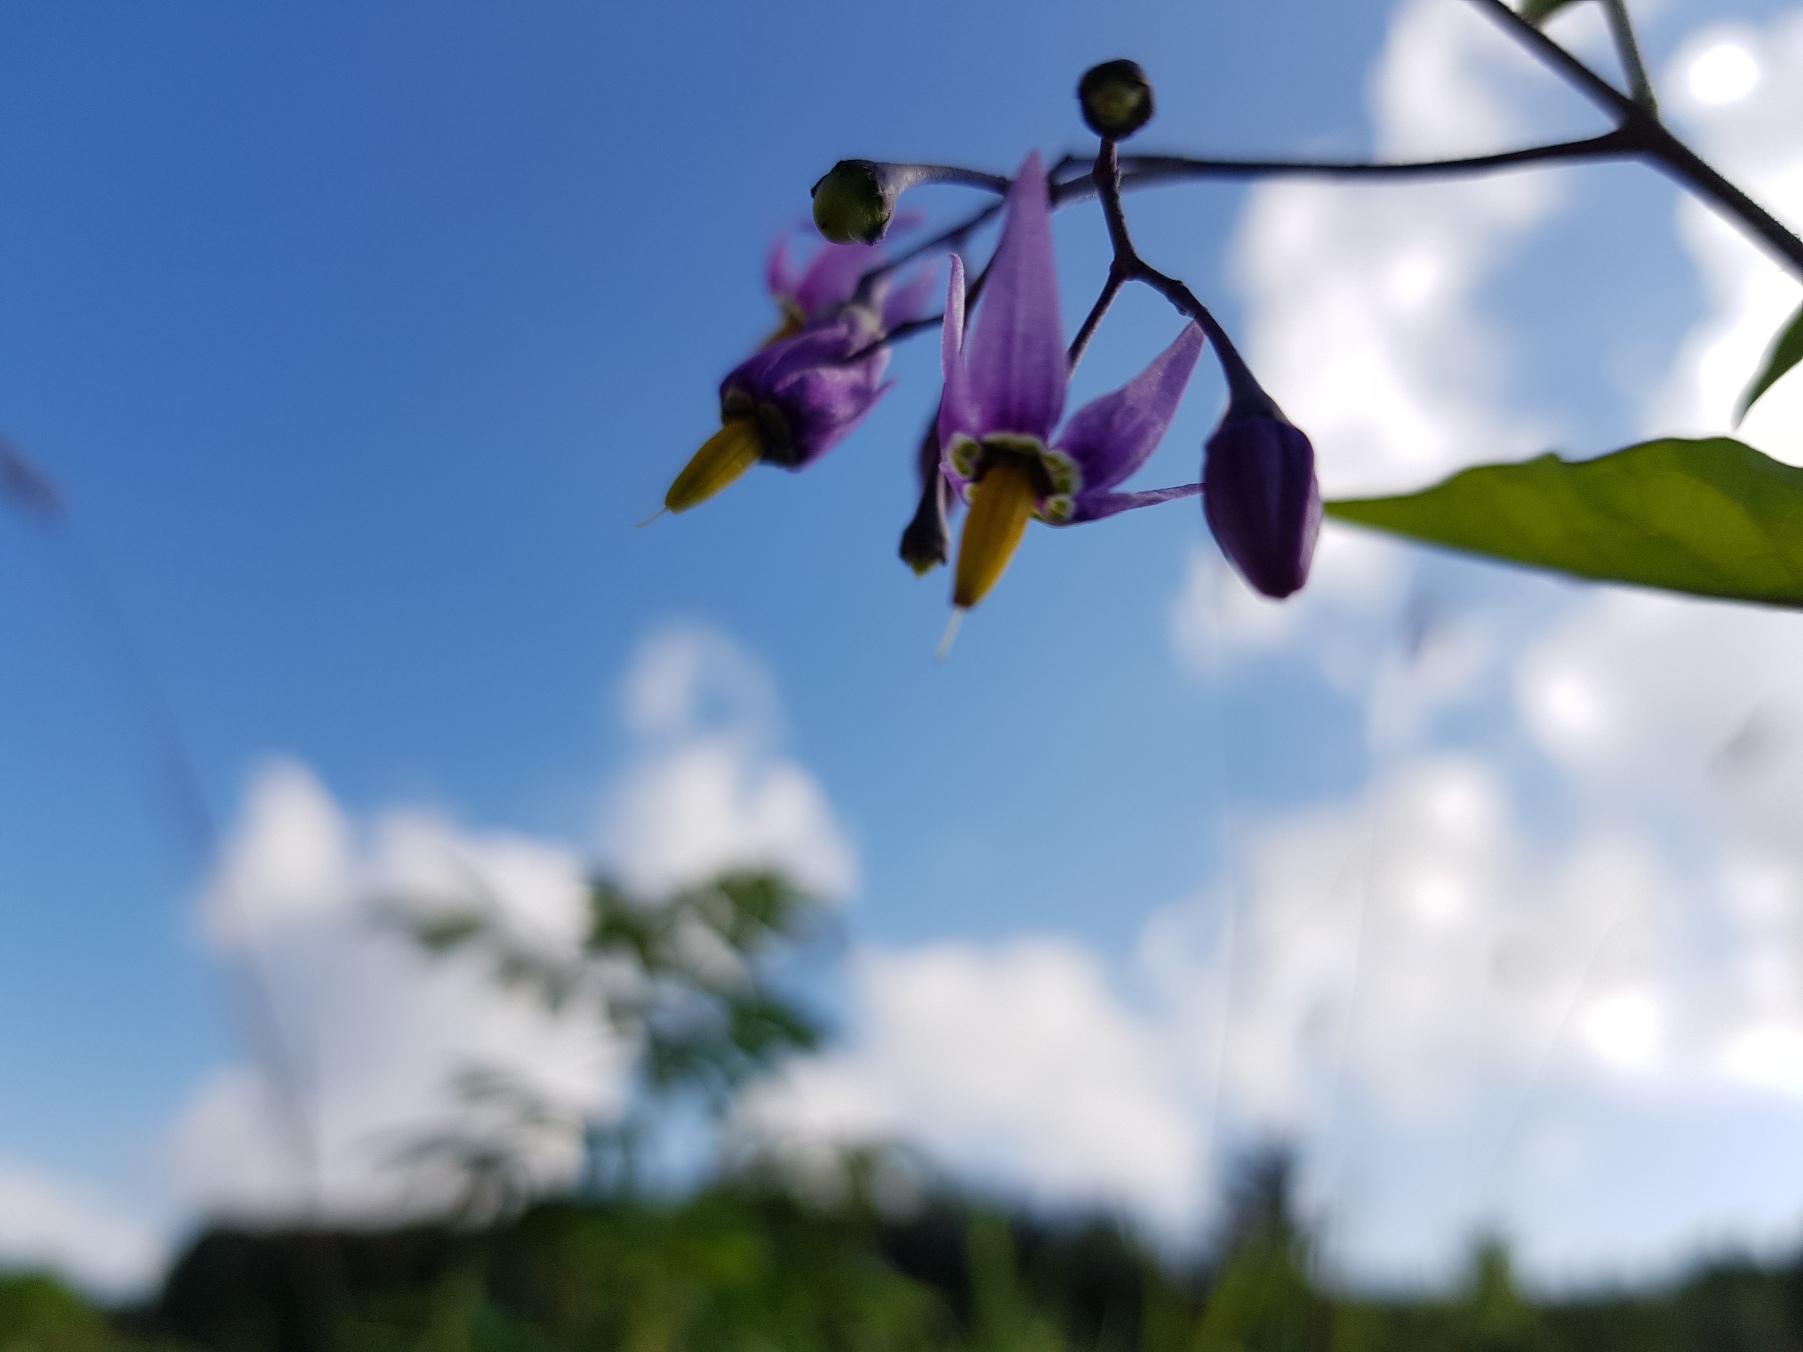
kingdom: Plantae
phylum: Tracheophyta
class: Magnoliopsida
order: Solanales
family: Solanaceae
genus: Solanum
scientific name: Solanum dulcamara
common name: Bittersød natskygge
